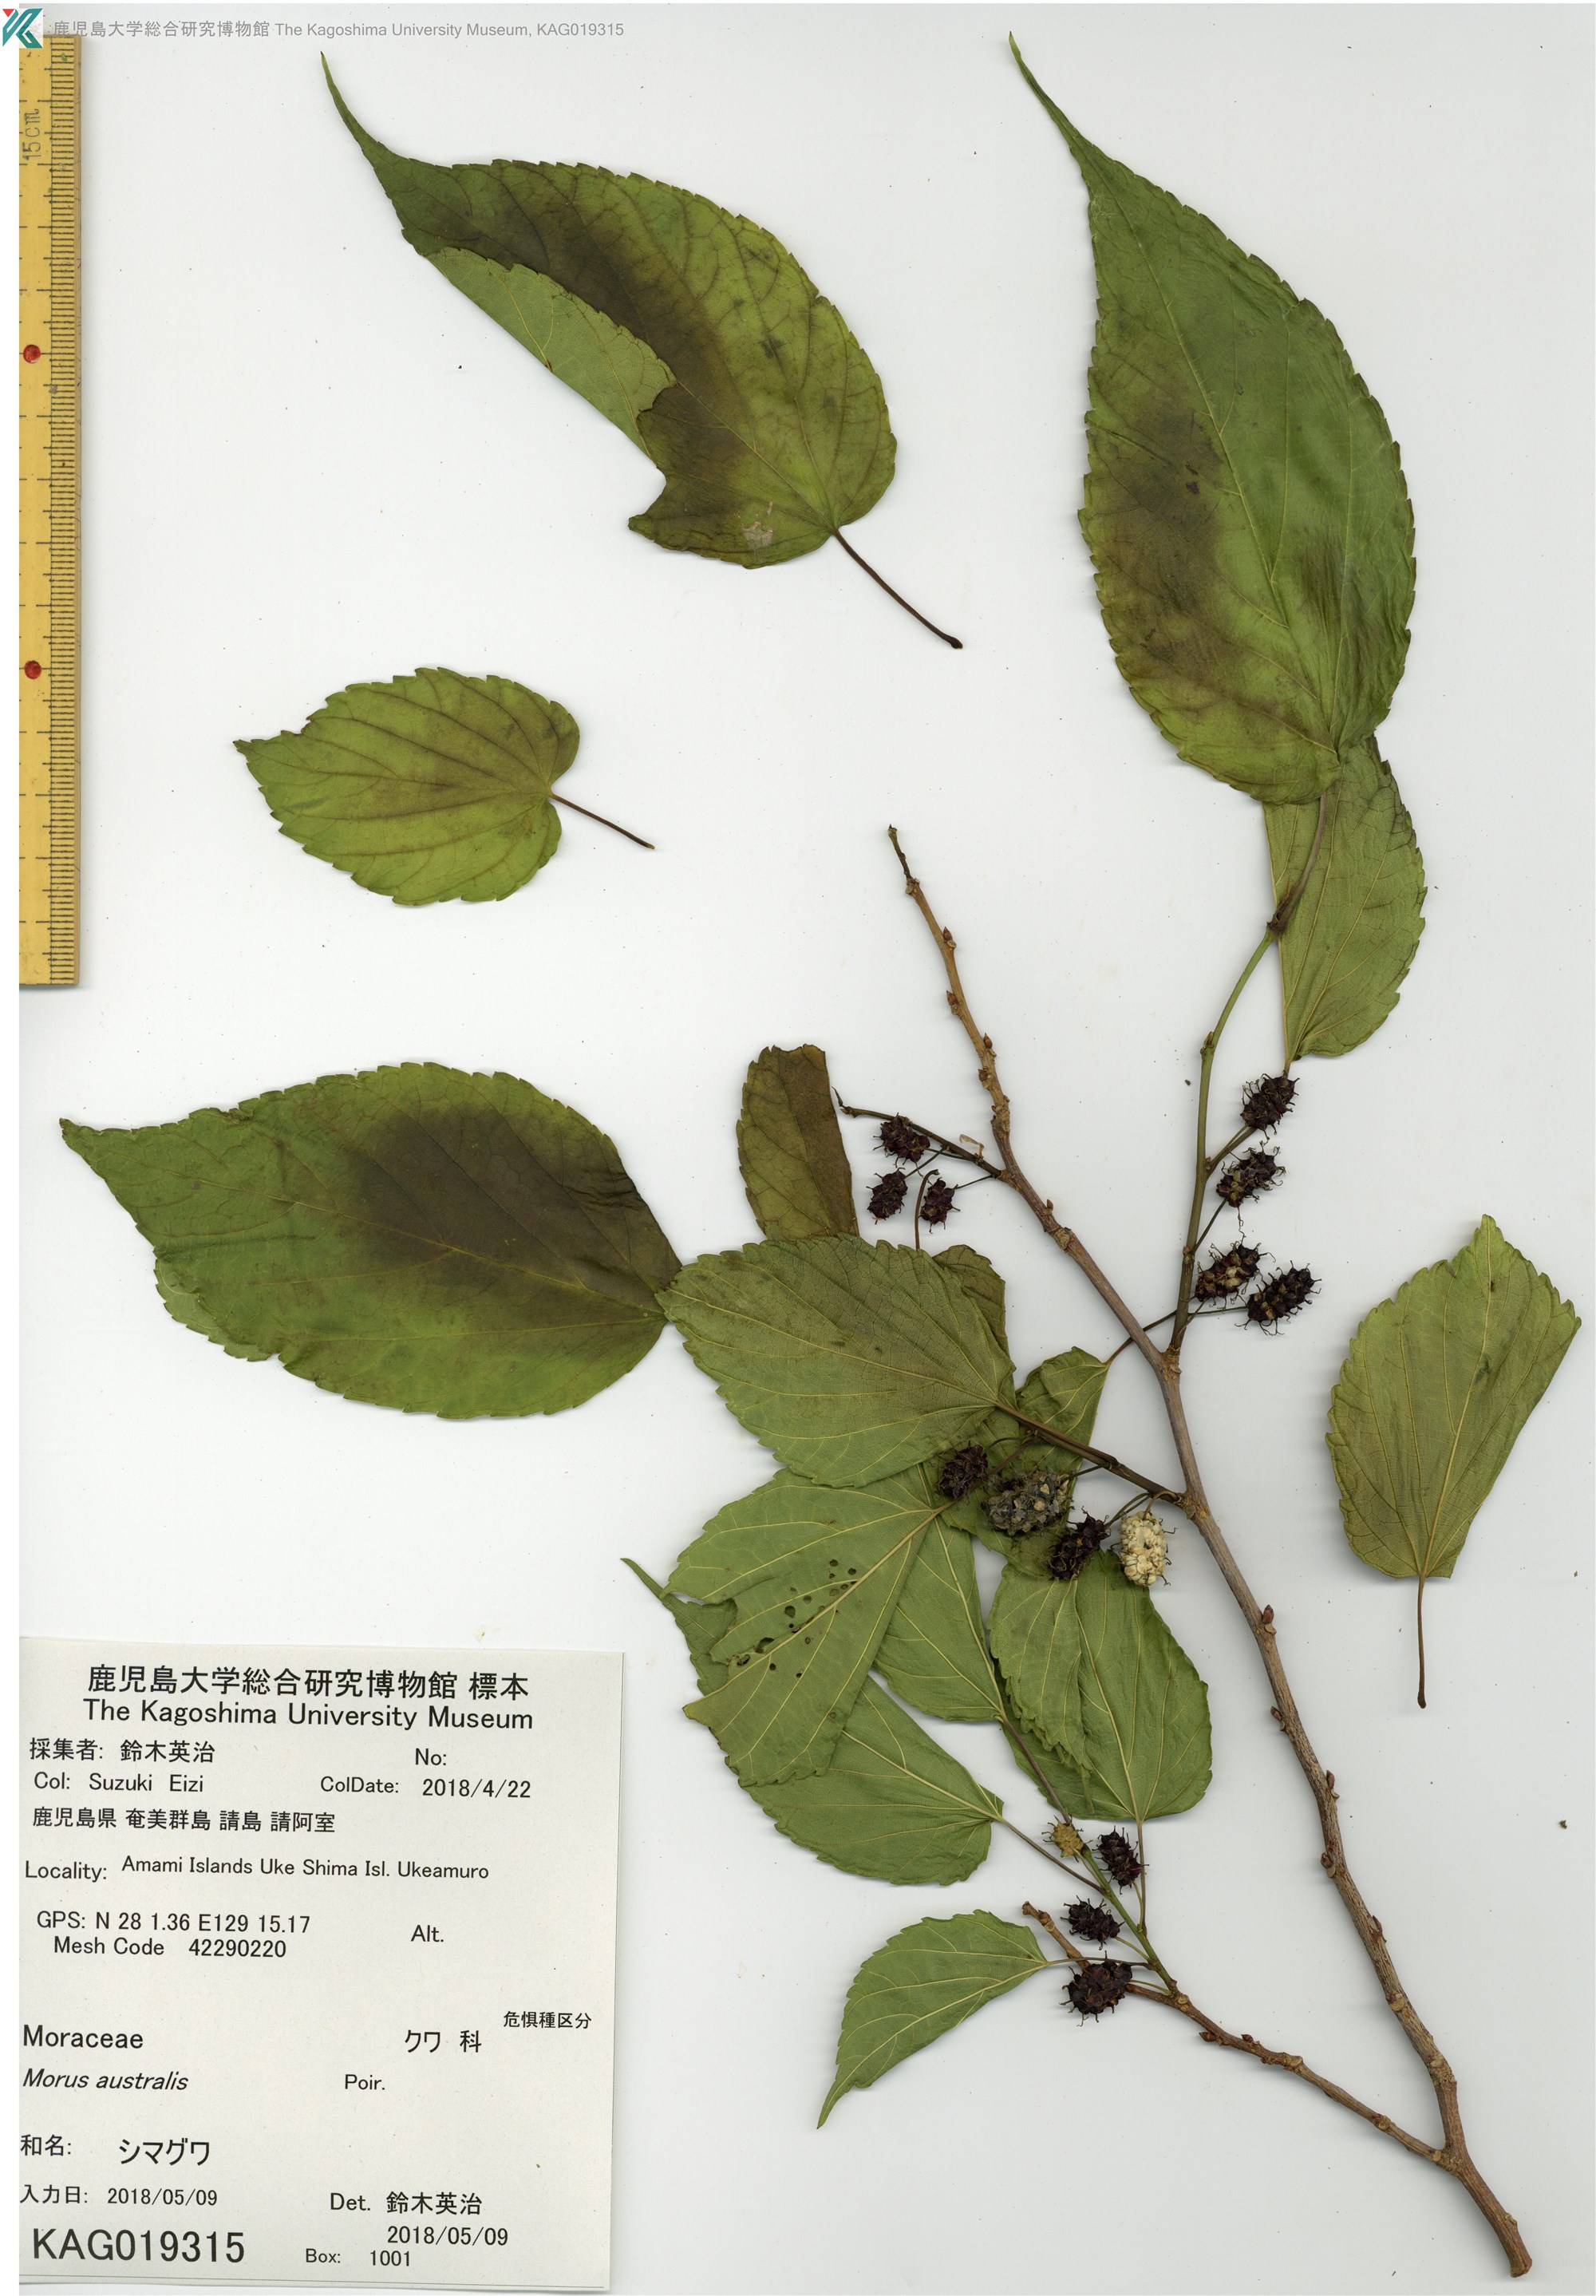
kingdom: Plantae
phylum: Tracheophyta
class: Magnoliopsida
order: Rosales
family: Moraceae
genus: Broussonetia
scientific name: Broussonetia papyrifera
